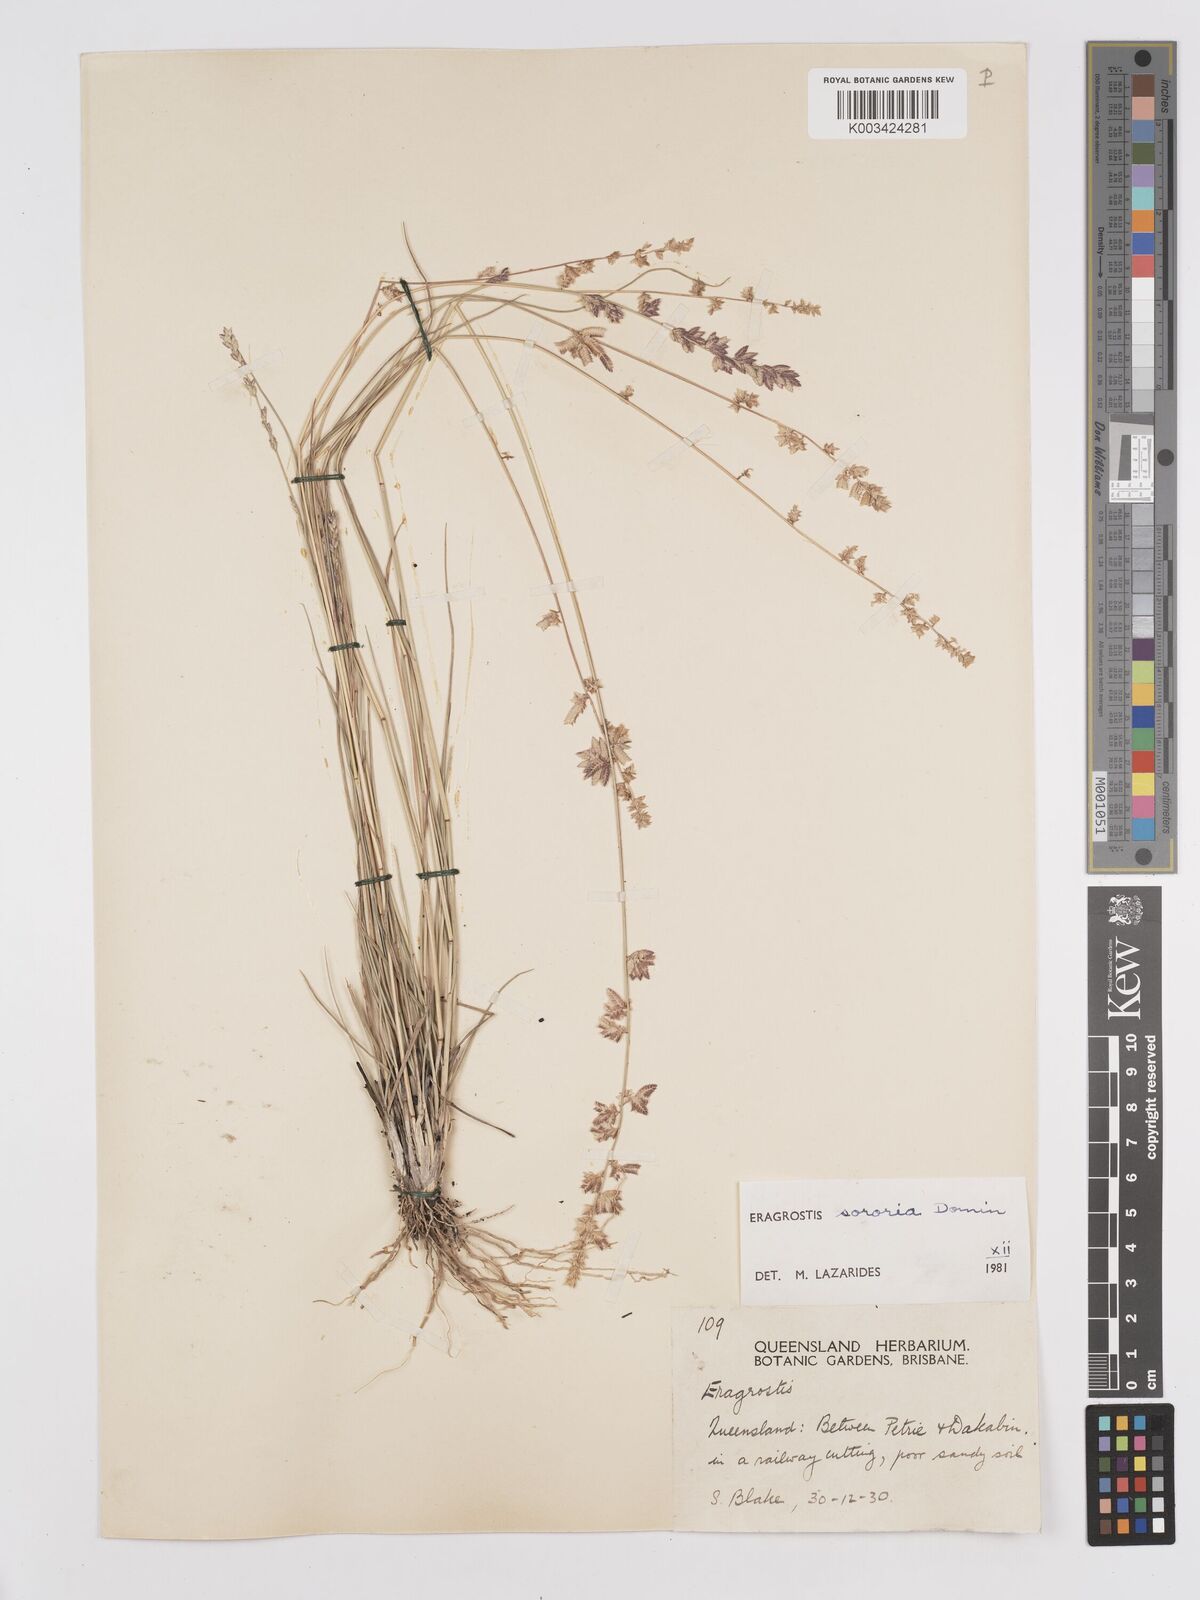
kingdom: Plantae
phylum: Tracheophyta
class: Liliopsida
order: Poales
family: Poaceae
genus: Eragrostis
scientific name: Eragrostis sororia
